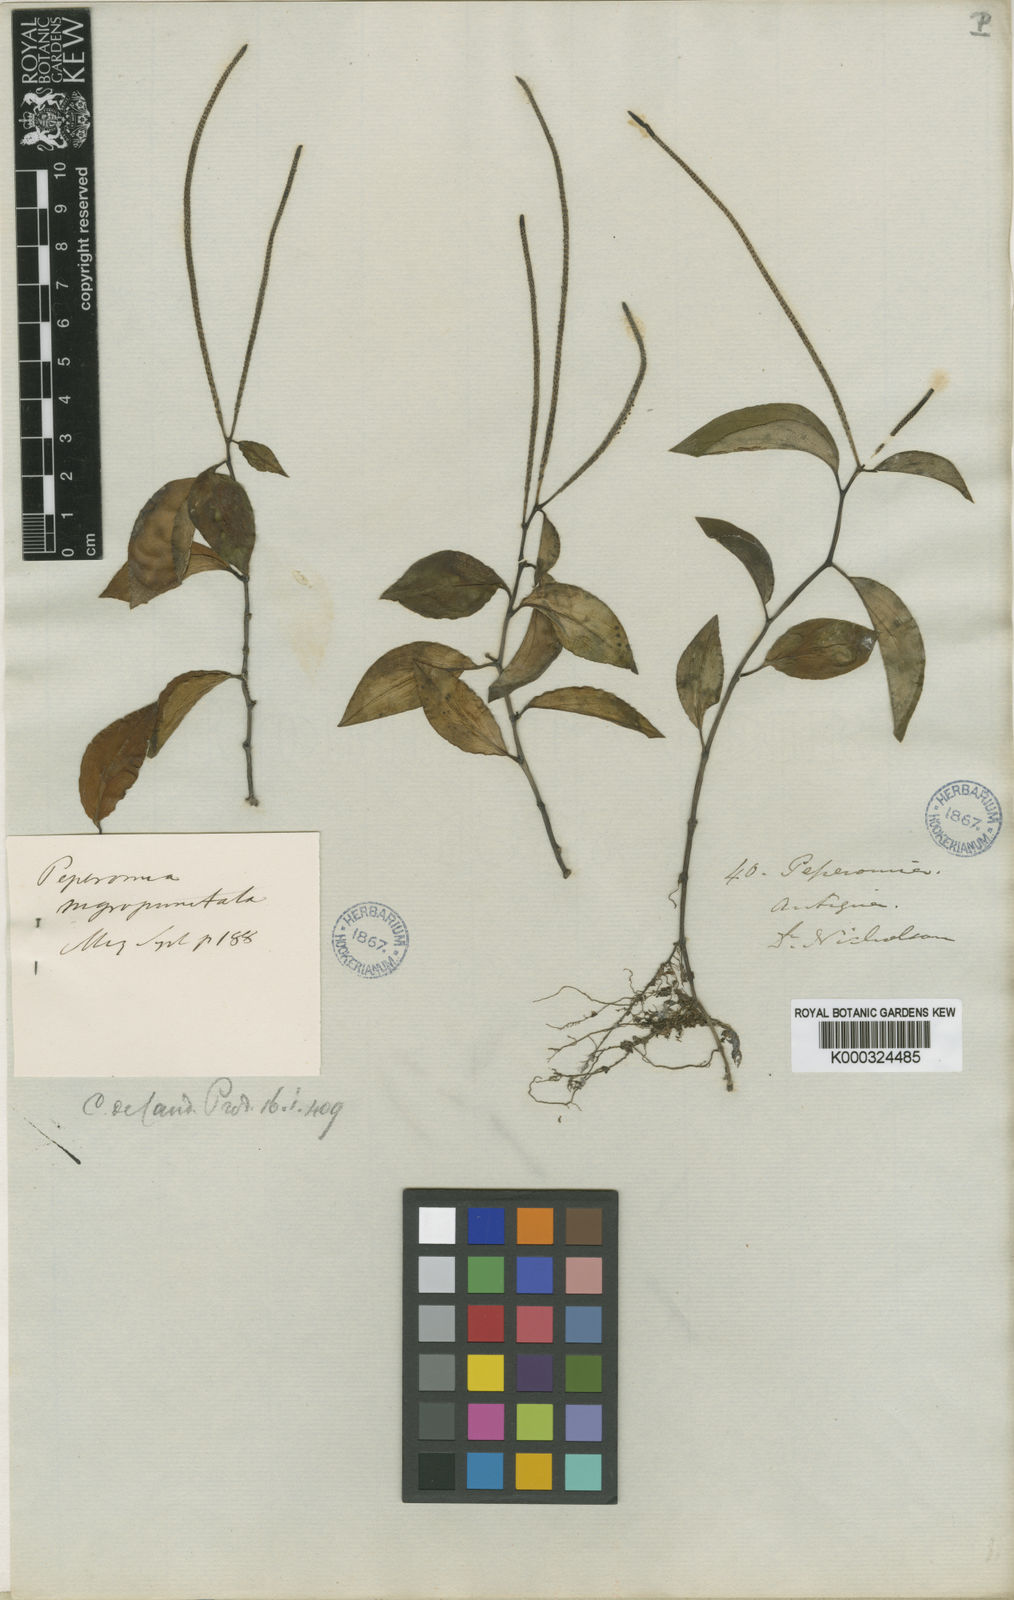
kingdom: Plantae
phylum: Tracheophyta
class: Magnoliopsida
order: Piperales
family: Piperaceae
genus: Peperomia
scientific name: Peperomia glabella
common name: Cypress peperomia
